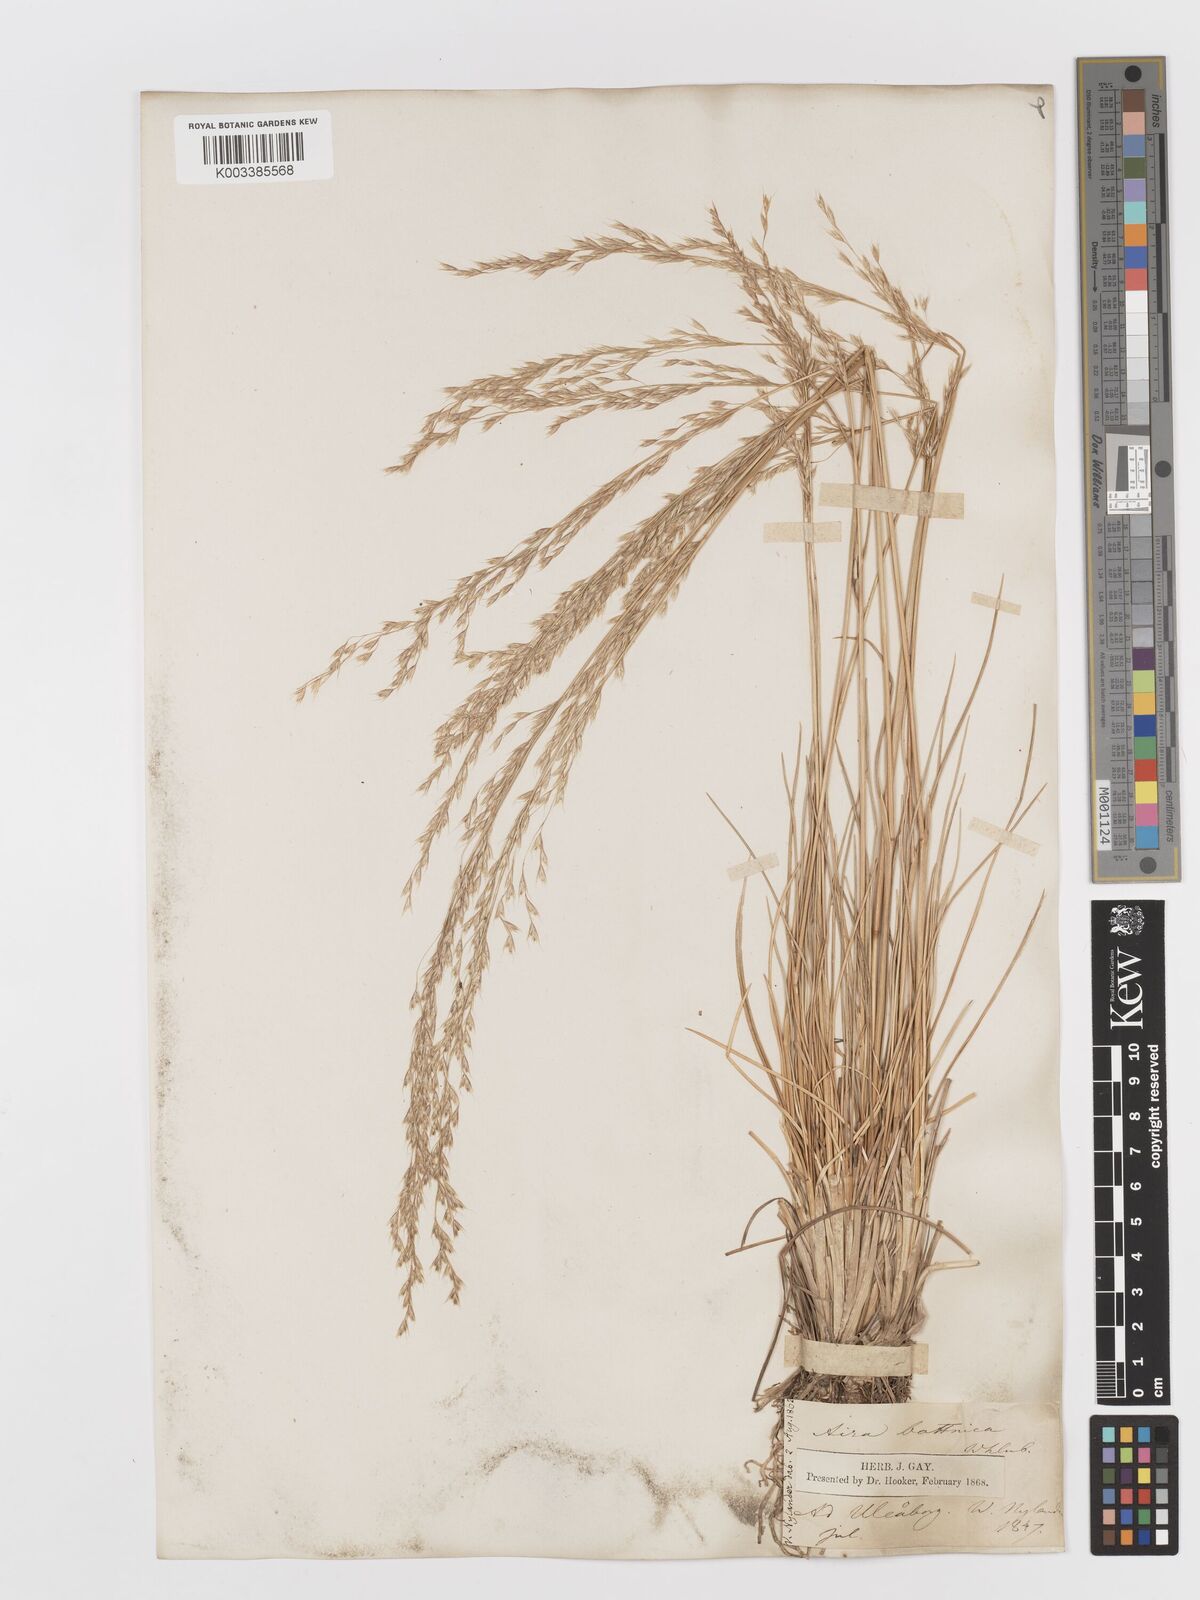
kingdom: Plantae
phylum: Tracheophyta
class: Liliopsida
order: Poales
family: Poaceae
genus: Deschampsia
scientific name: Deschampsia cespitosa
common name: Tufted hair-grass
